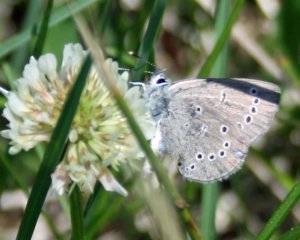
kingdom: Animalia
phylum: Arthropoda
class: Insecta
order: Lepidoptera
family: Lycaenidae
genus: Glaucopsyche
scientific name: Glaucopsyche lygdamus
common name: Silvery Blue
